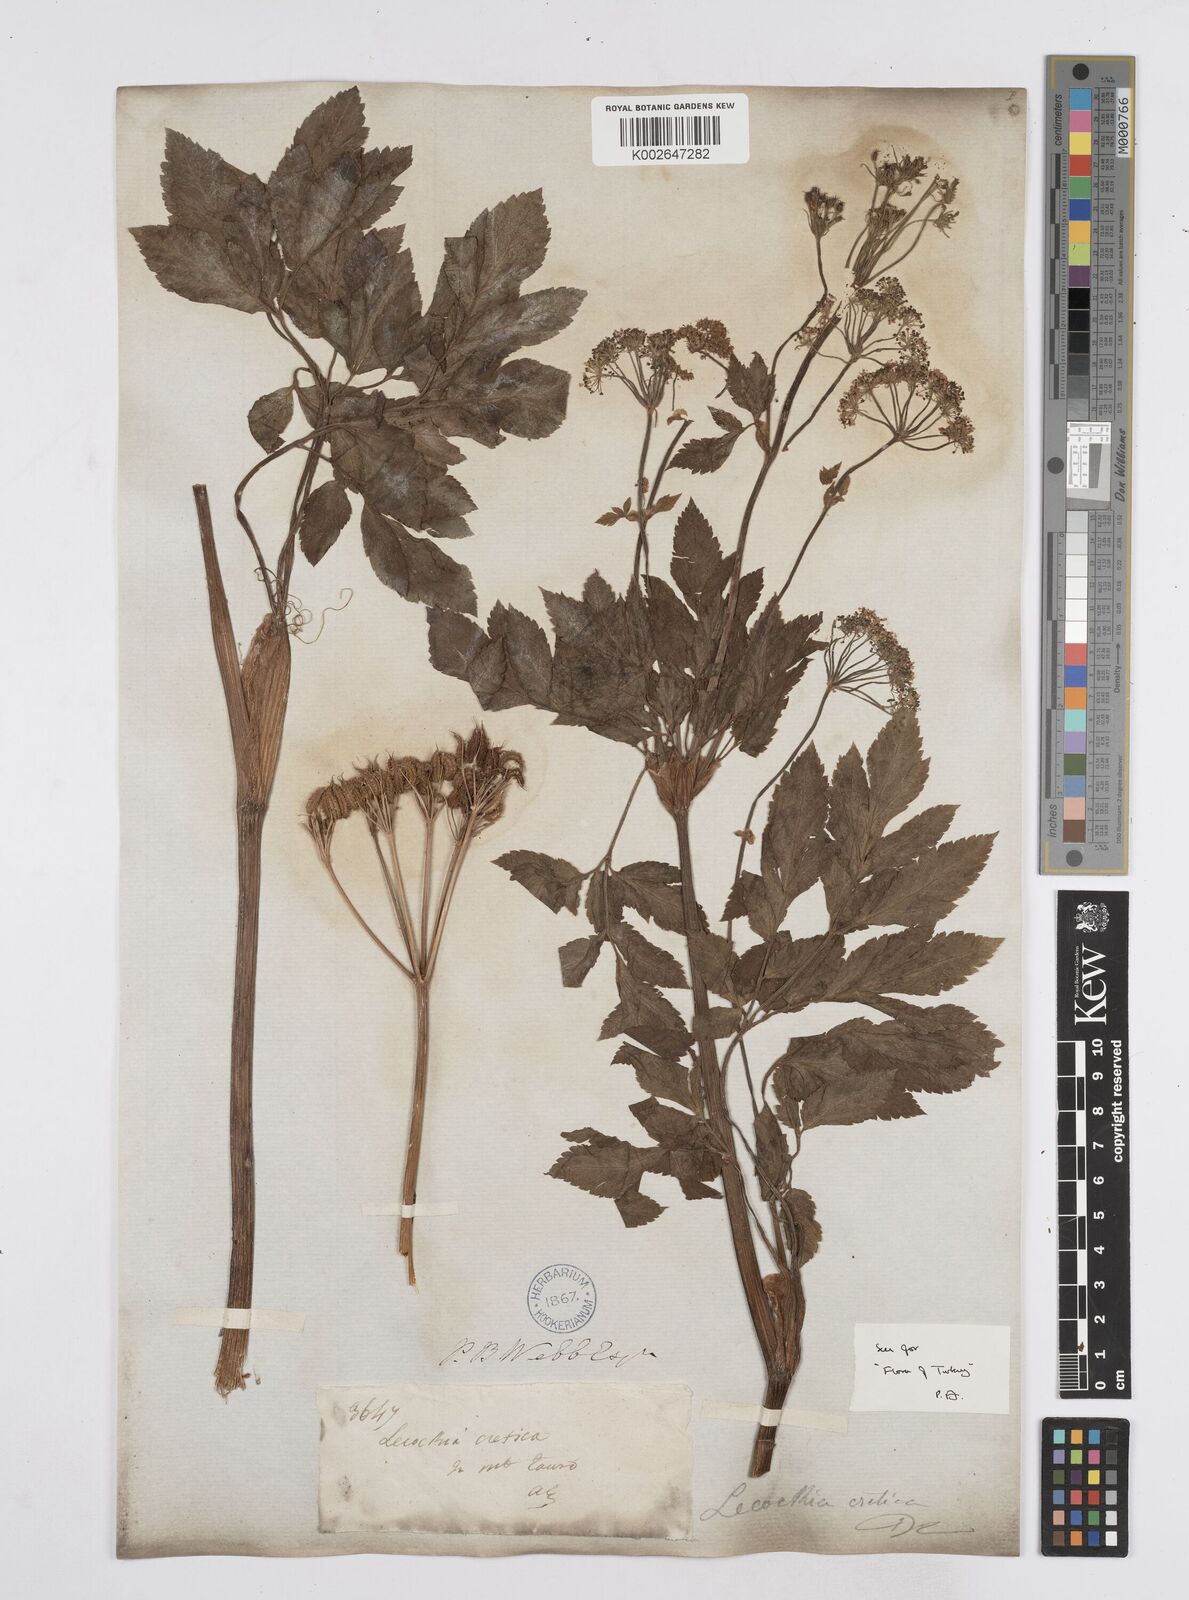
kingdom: Plantae
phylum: Tracheophyta
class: Magnoliopsida
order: Apiales
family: Apiaceae
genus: Lecokia
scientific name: Lecokia cretica
